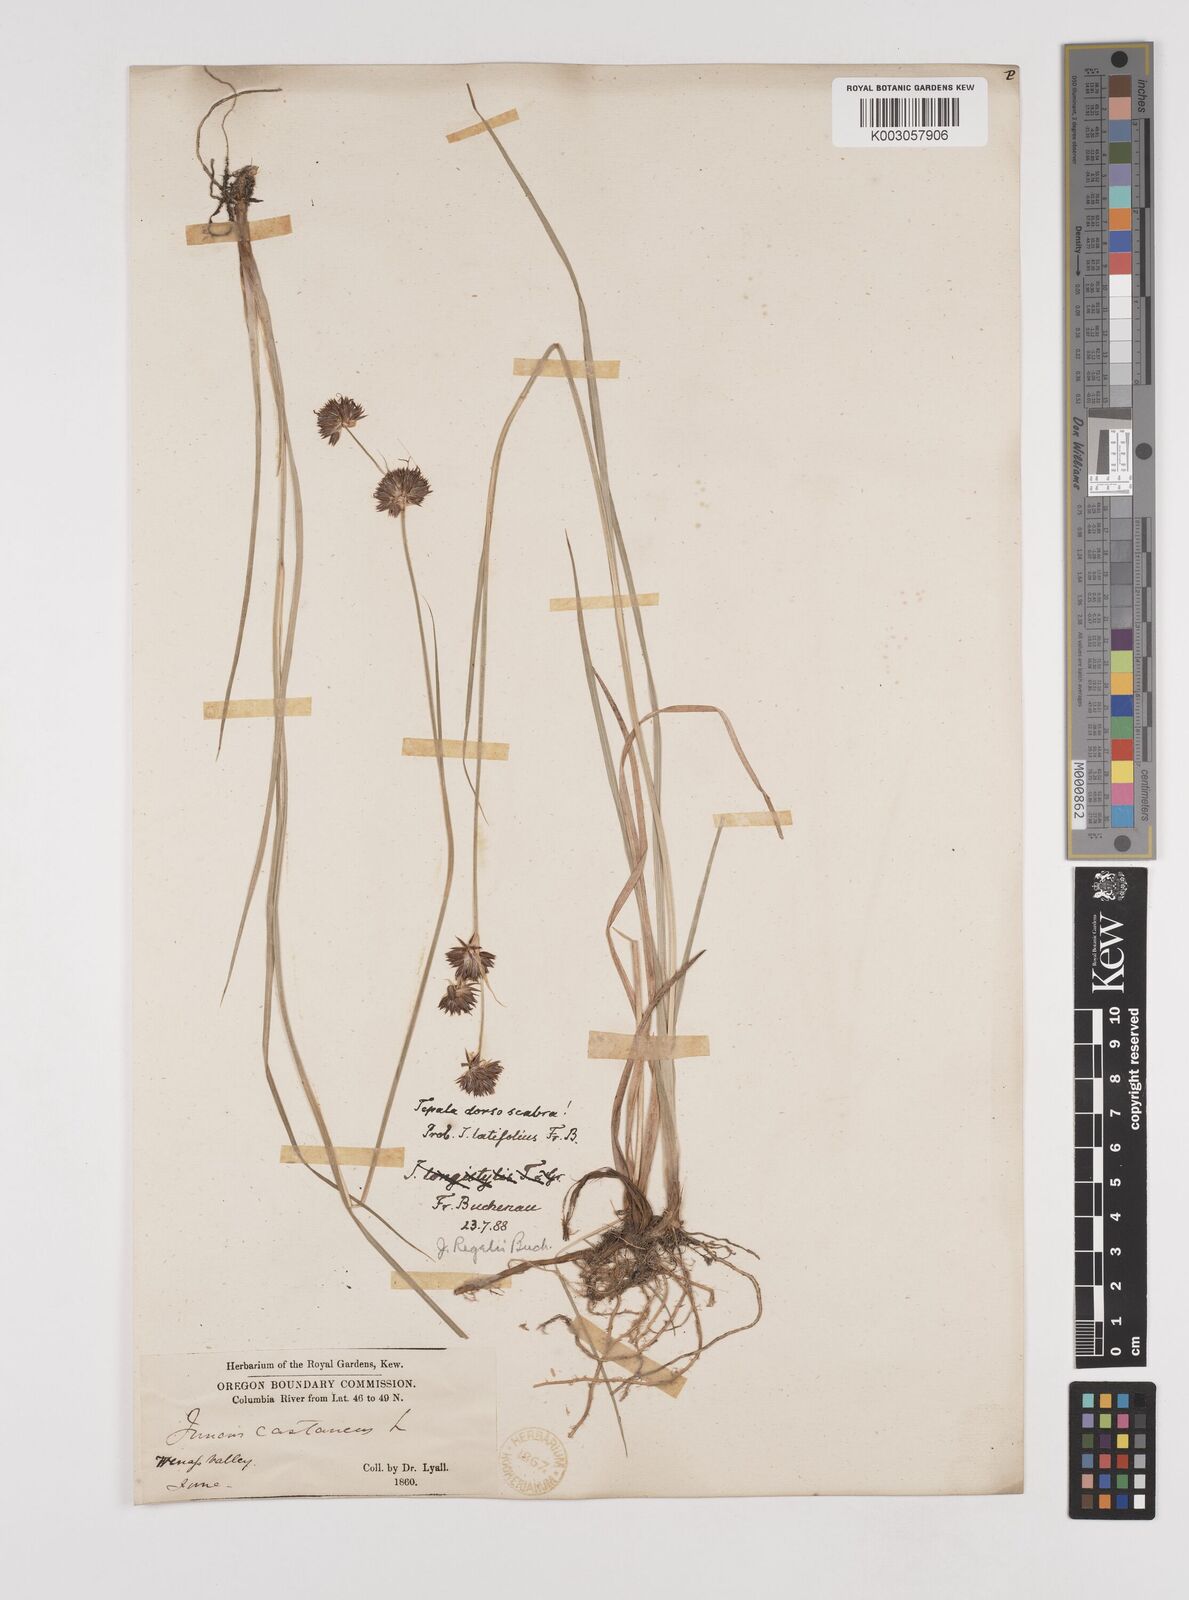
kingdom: Plantae
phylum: Tracheophyta
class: Liliopsida
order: Poales
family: Juncaceae
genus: Juncus
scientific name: Juncus regelii
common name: Regel's rush
